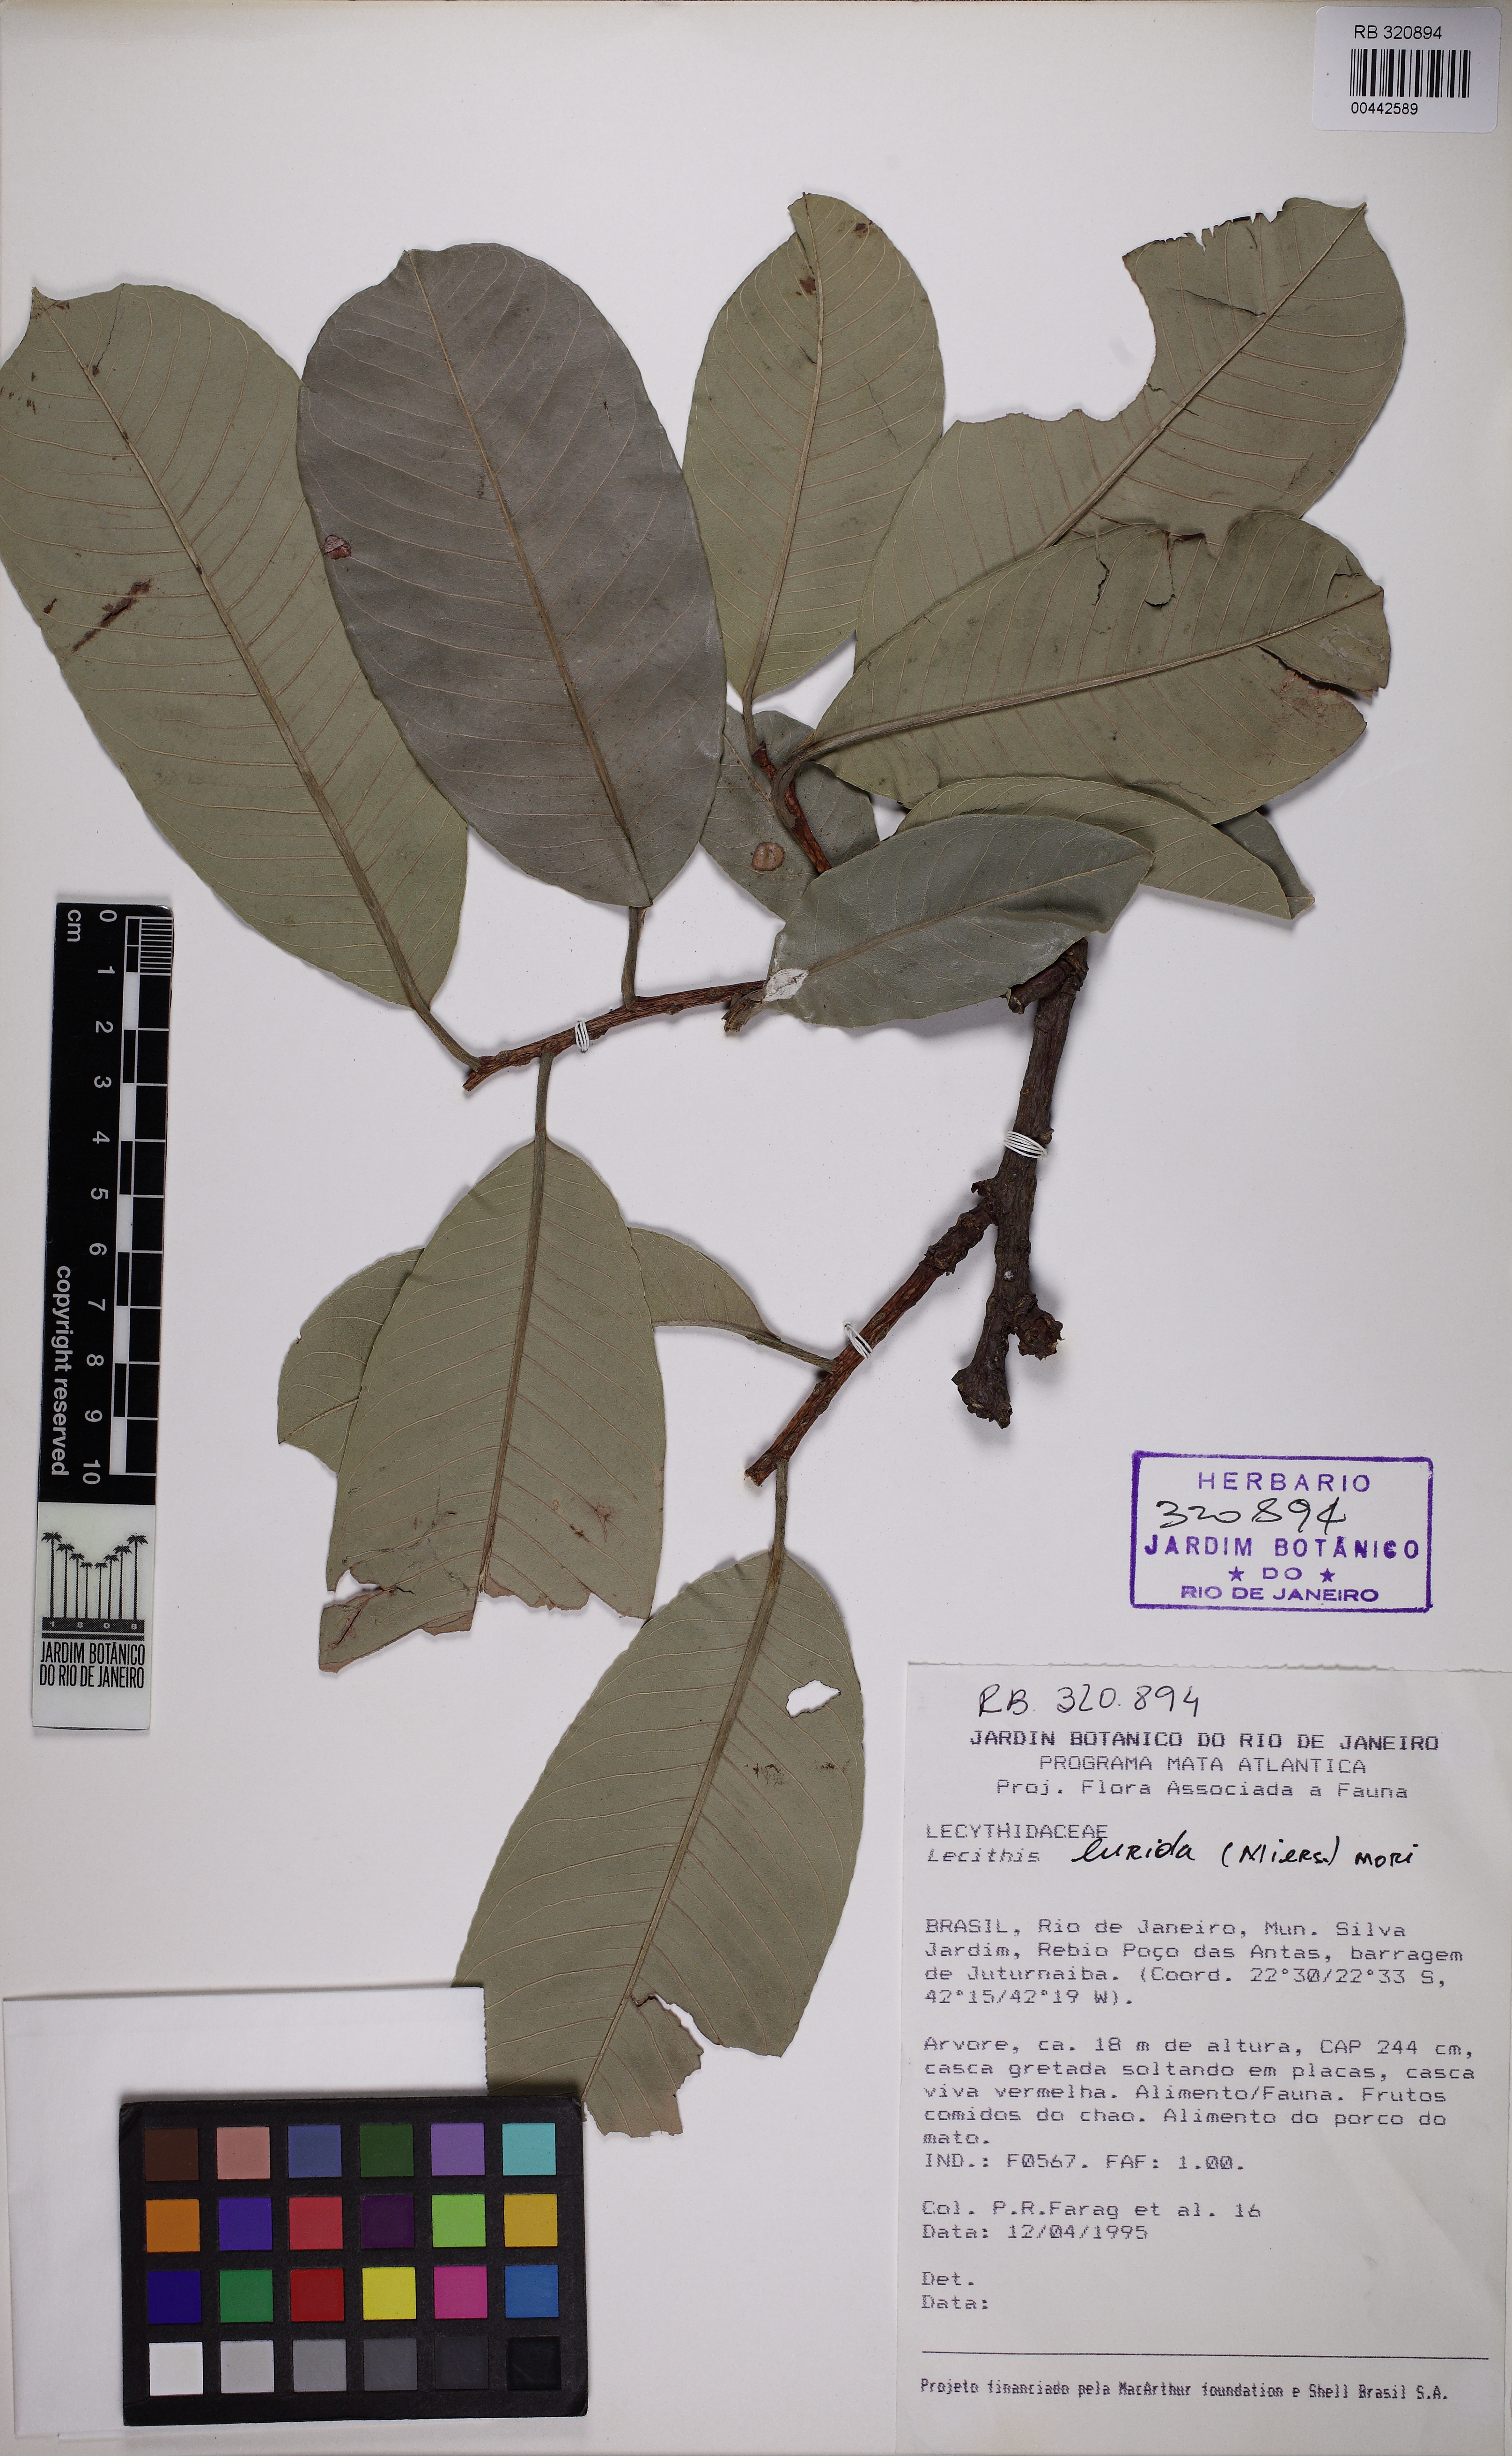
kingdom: Plantae
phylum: Tracheophyta
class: Magnoliopsida
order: Ericales
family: Lecythidaceae
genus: Lecythis
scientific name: Lecythis lurida
